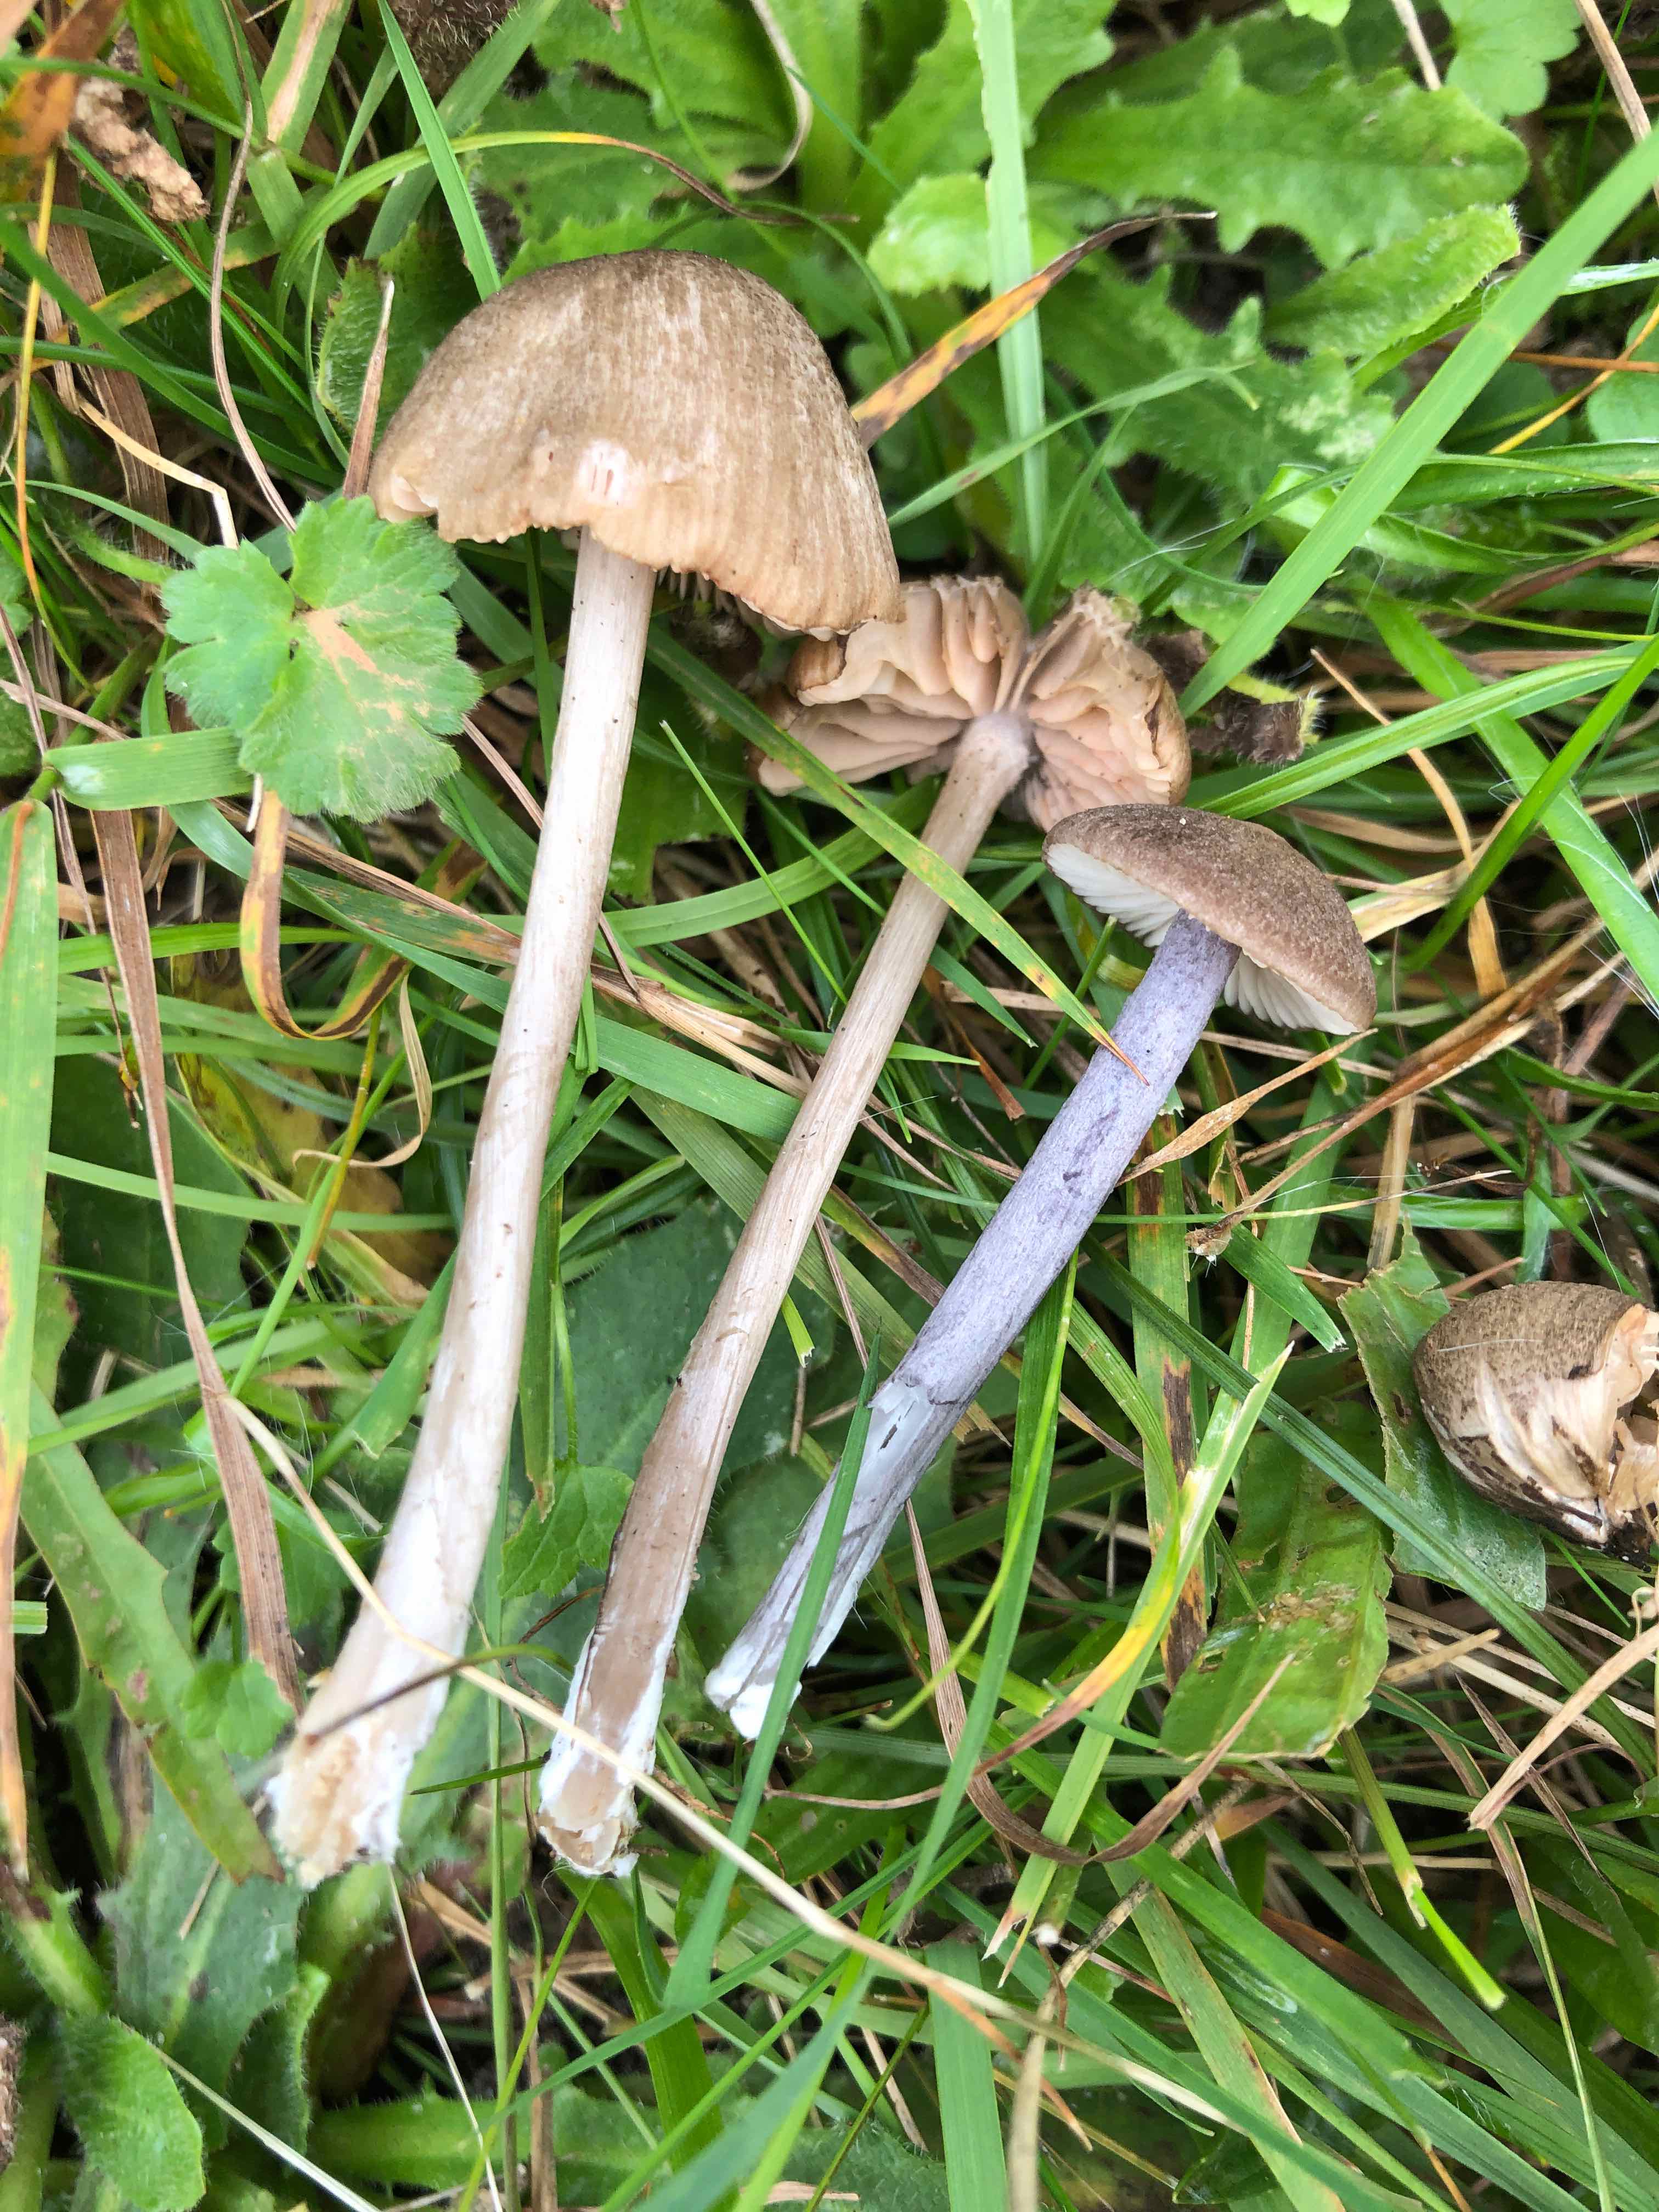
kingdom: Fungi
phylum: Basidiomycota
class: Agaricomycetes
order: Agaricales
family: Entolomataceae
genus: Entoloma
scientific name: Entoloma griseocyaneum
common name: gråblå rødblad
